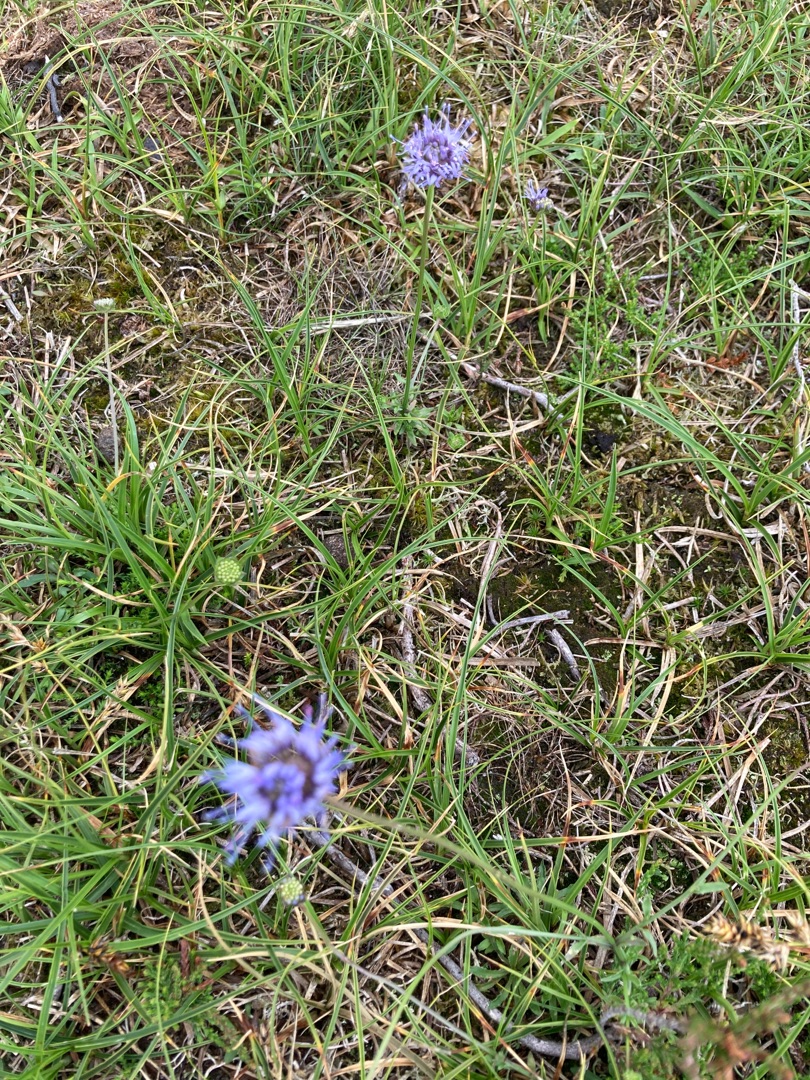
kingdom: Plantae
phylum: Tracheophyta
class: Magnoliopsida
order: Asterales
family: Campanulaceae
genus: Jasione
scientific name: Jasione montana
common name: Blåmunke
